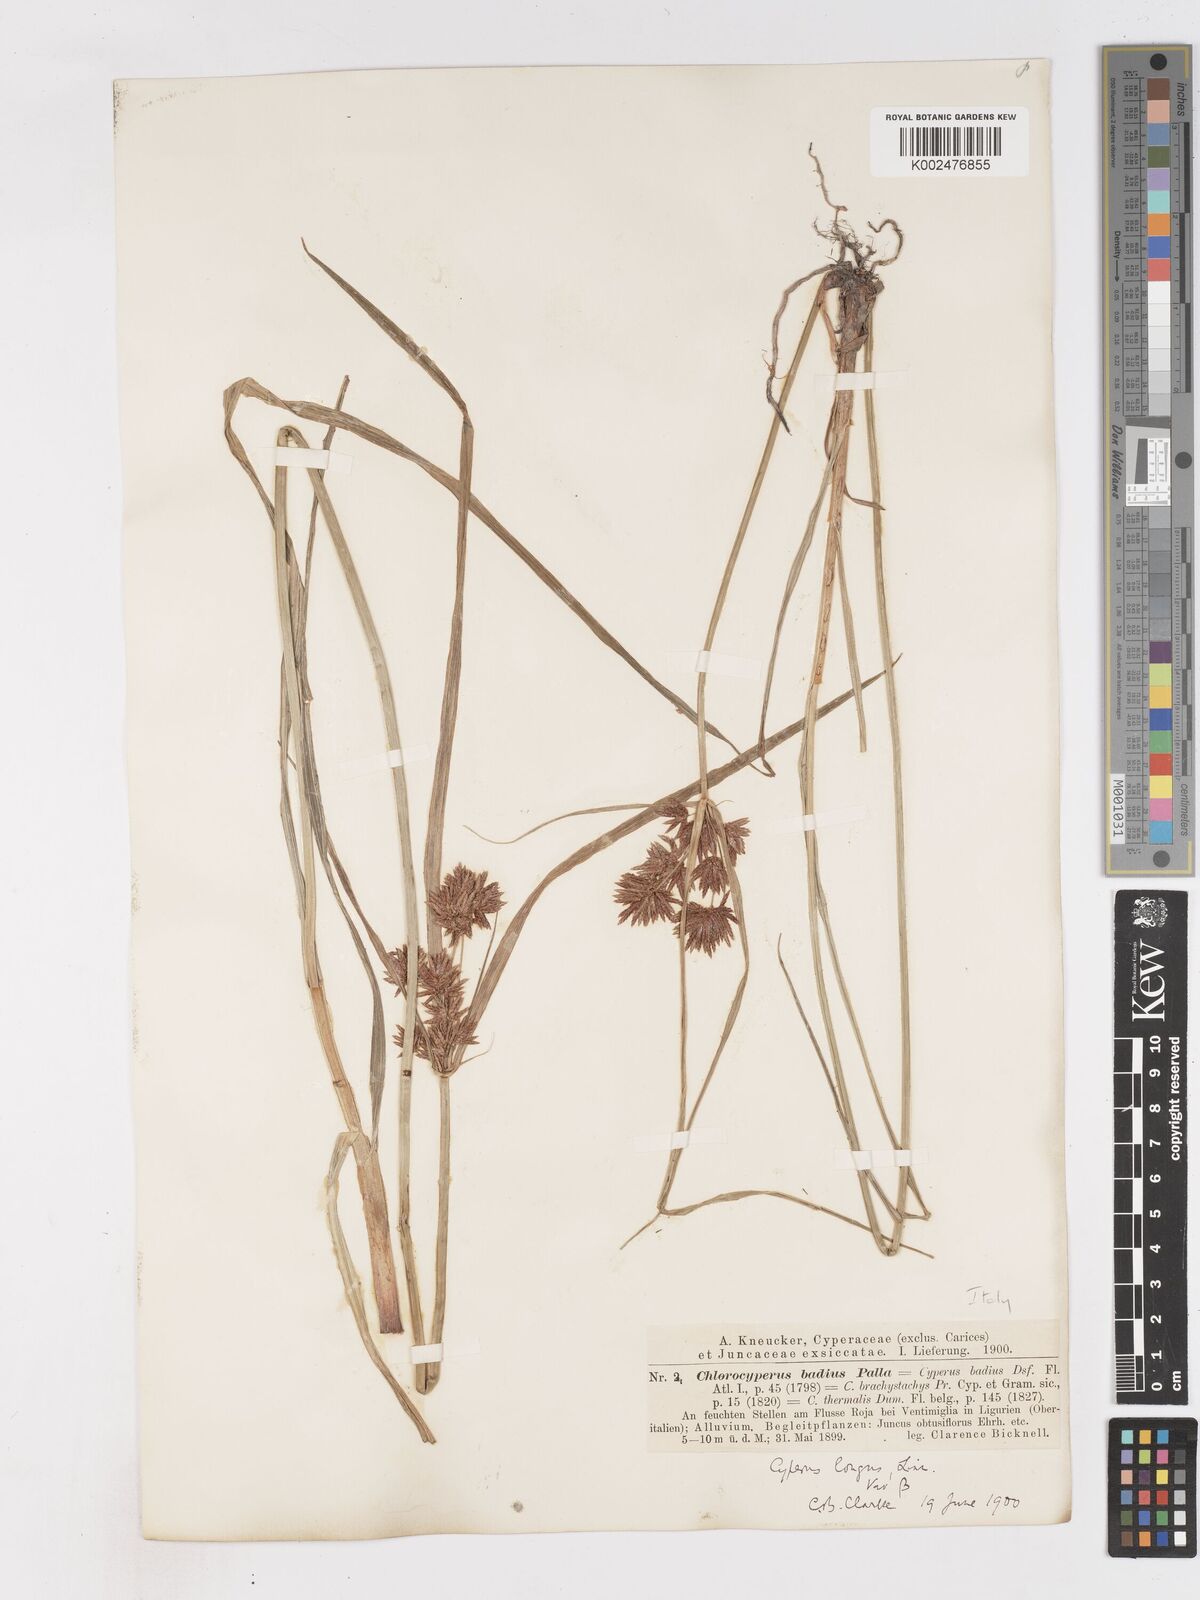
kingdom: Plantae
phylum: Tracheophyta
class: Liliopsida
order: Poales
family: Cyperaceae
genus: Cyperus
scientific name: Cyperus longus
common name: Galingale
